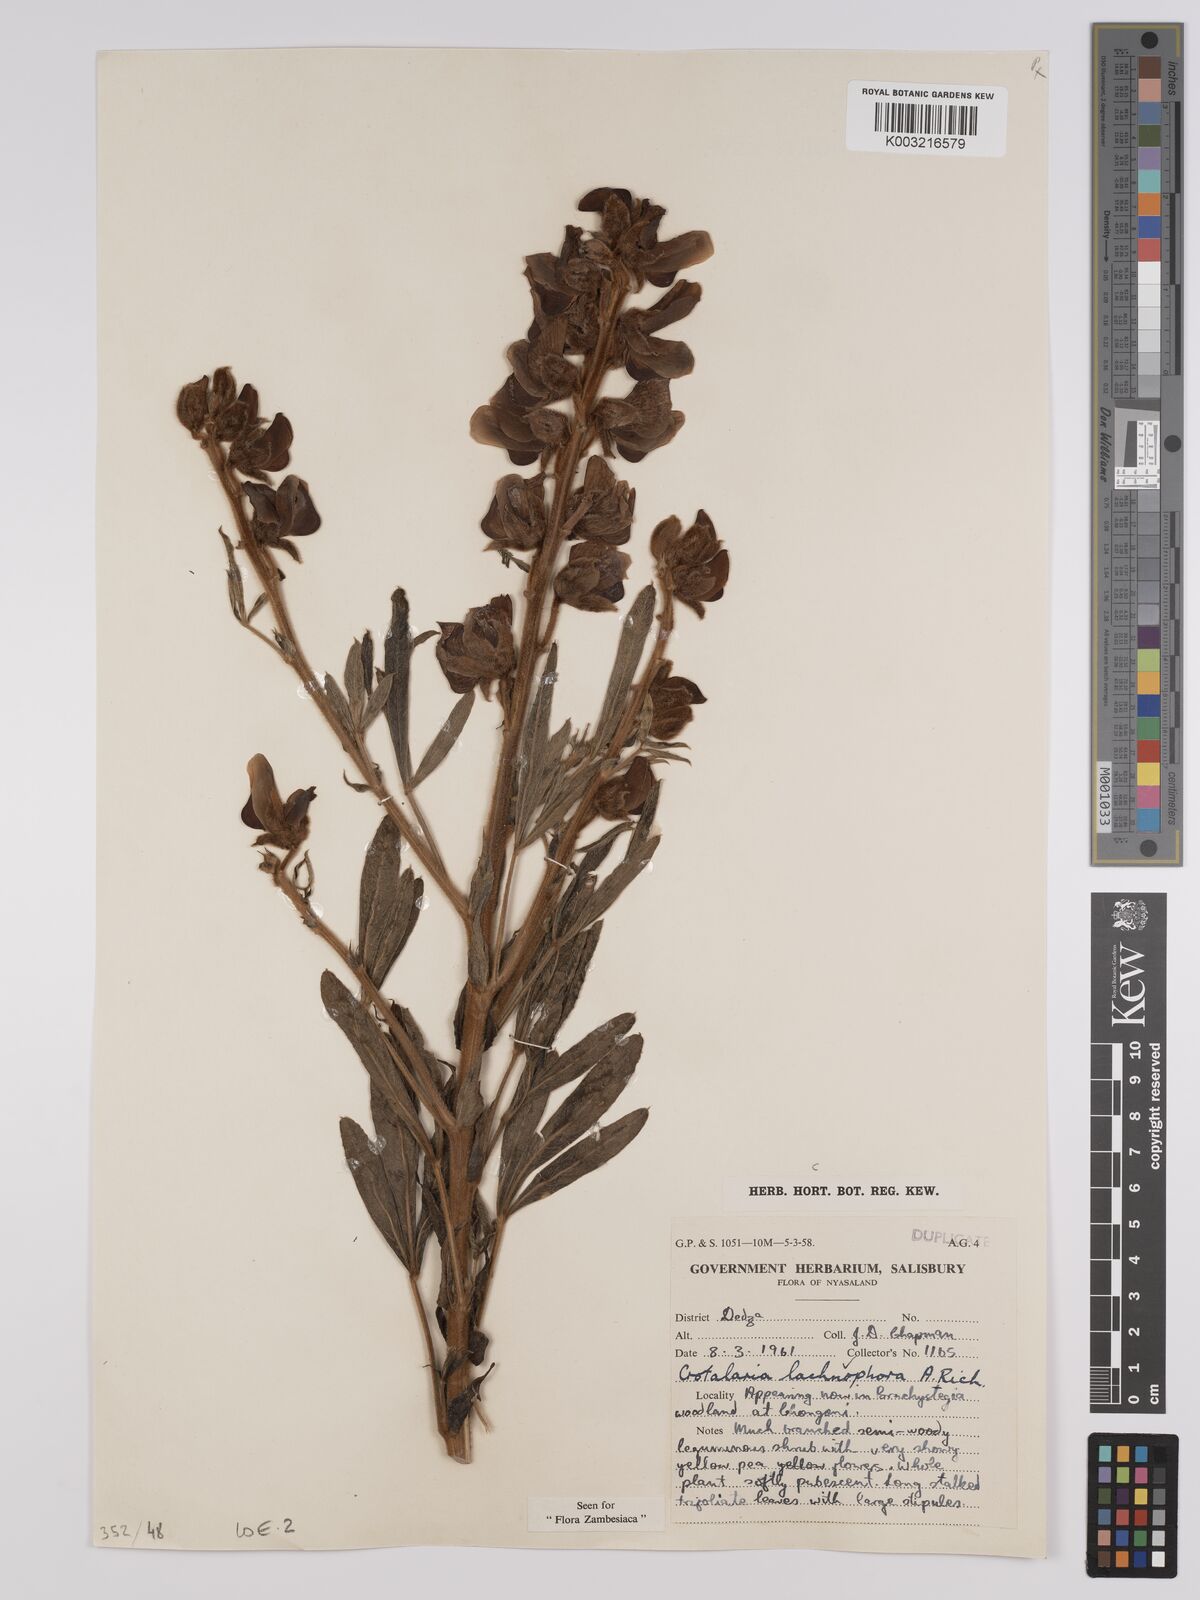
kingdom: Plantae
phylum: Tracheophyta
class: Magnoliopsida
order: Fabales
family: Fabaceae
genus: Crotalaria
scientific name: Crotalaria lachnophora
